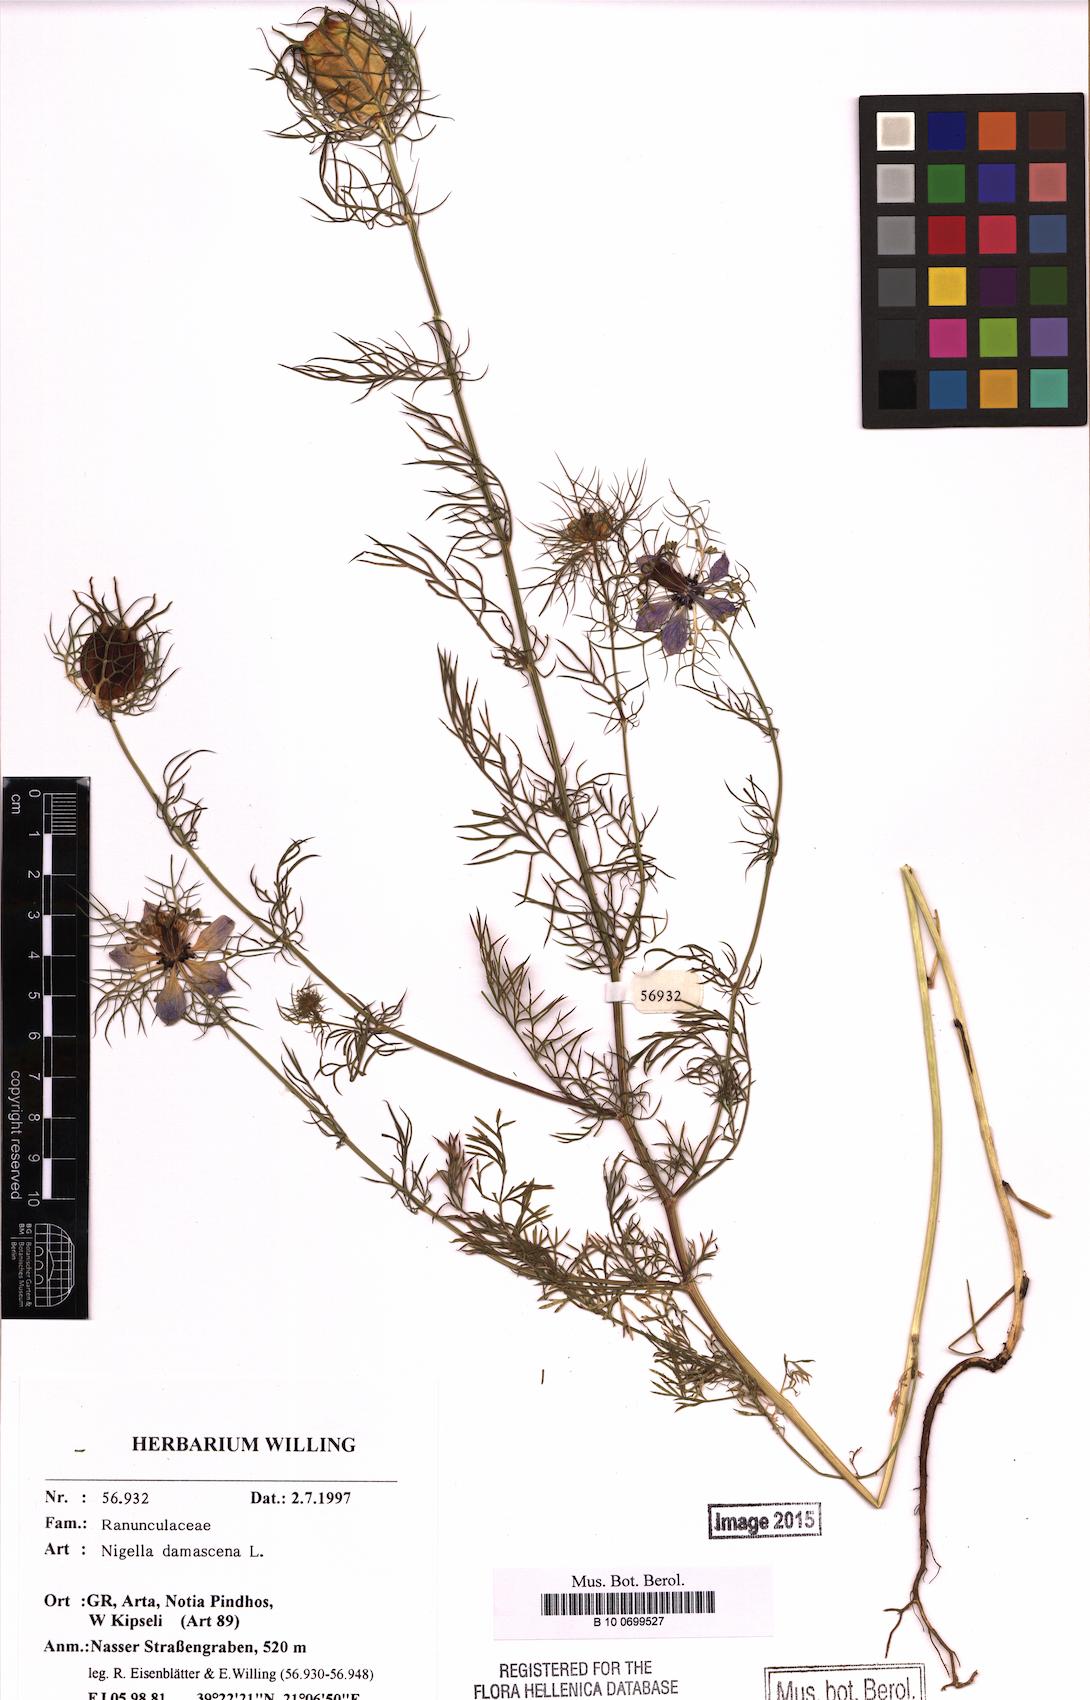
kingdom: Plantae
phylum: Tracheophyta
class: Magnoliopsida
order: Ranunculales
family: Ranunculaceae
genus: Nigella
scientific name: Nigella damascena
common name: Love-in-a-mist
